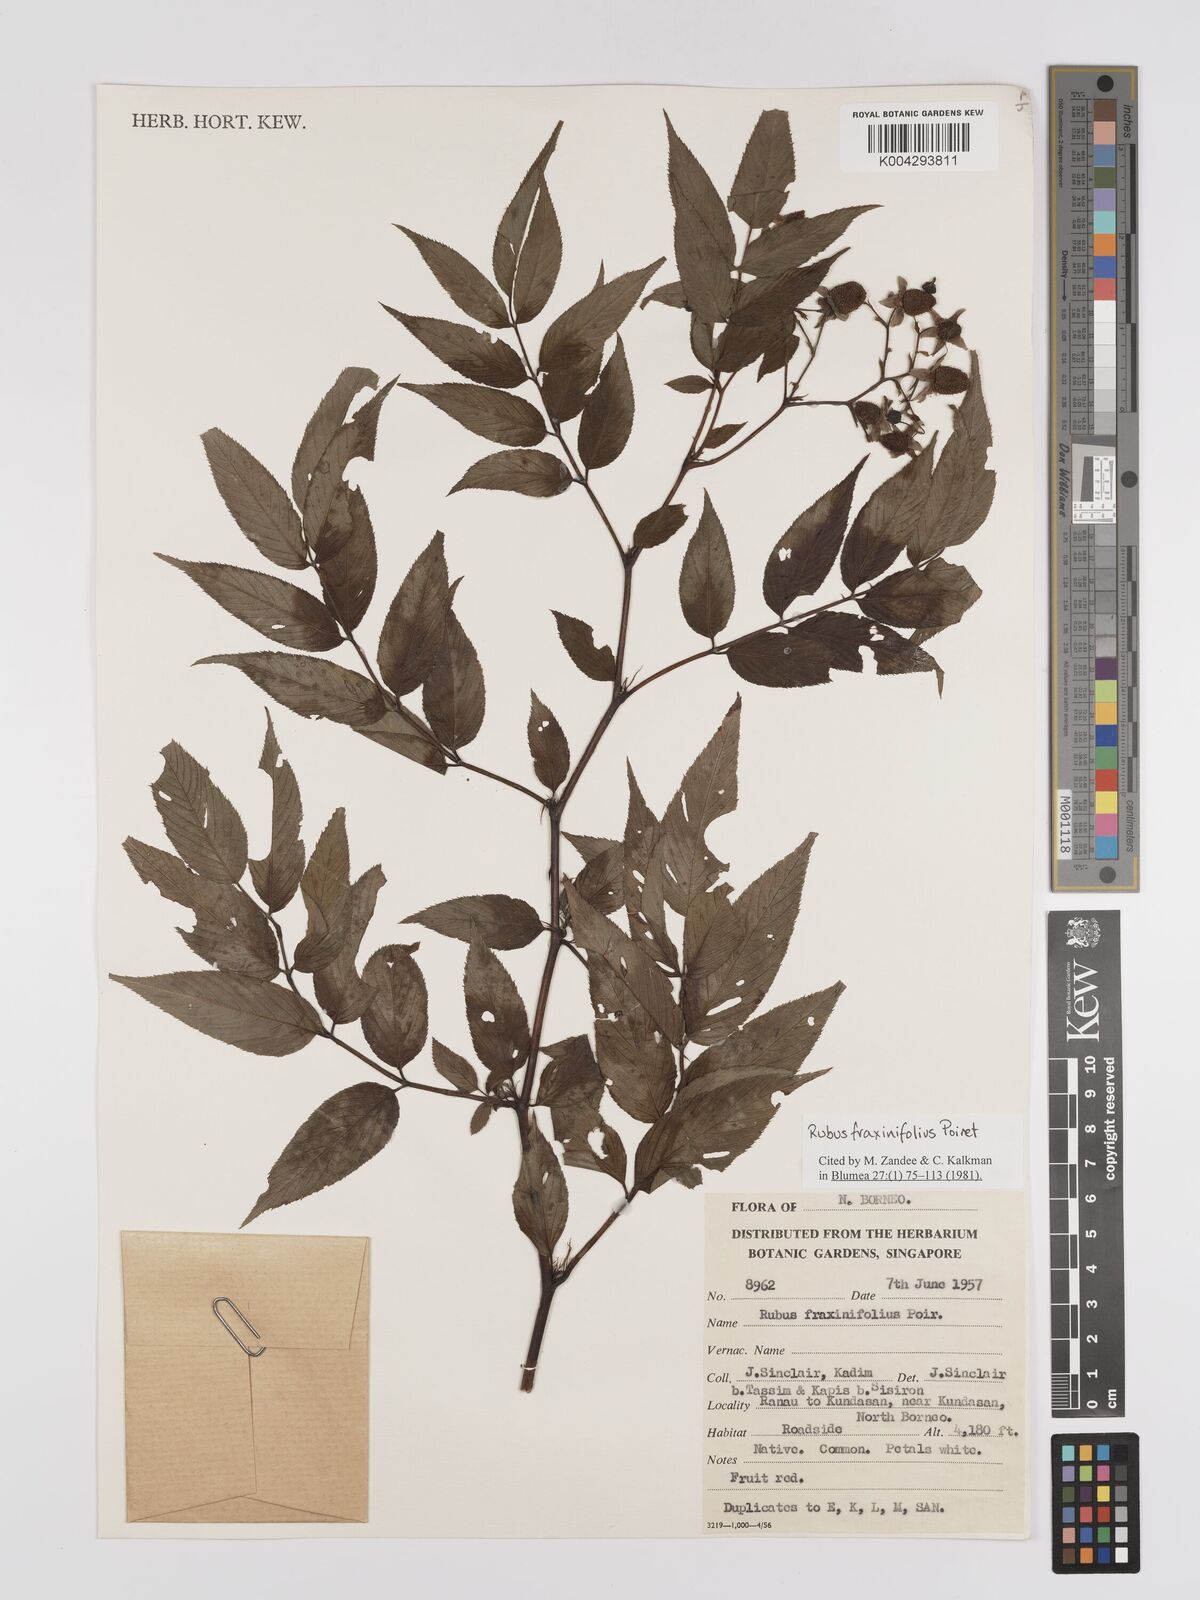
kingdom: Plantae
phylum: Tracheophyta
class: Magnoliopsida
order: Rosales
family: Rosaceae
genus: Rubus
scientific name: Rubus fraxinifolius
